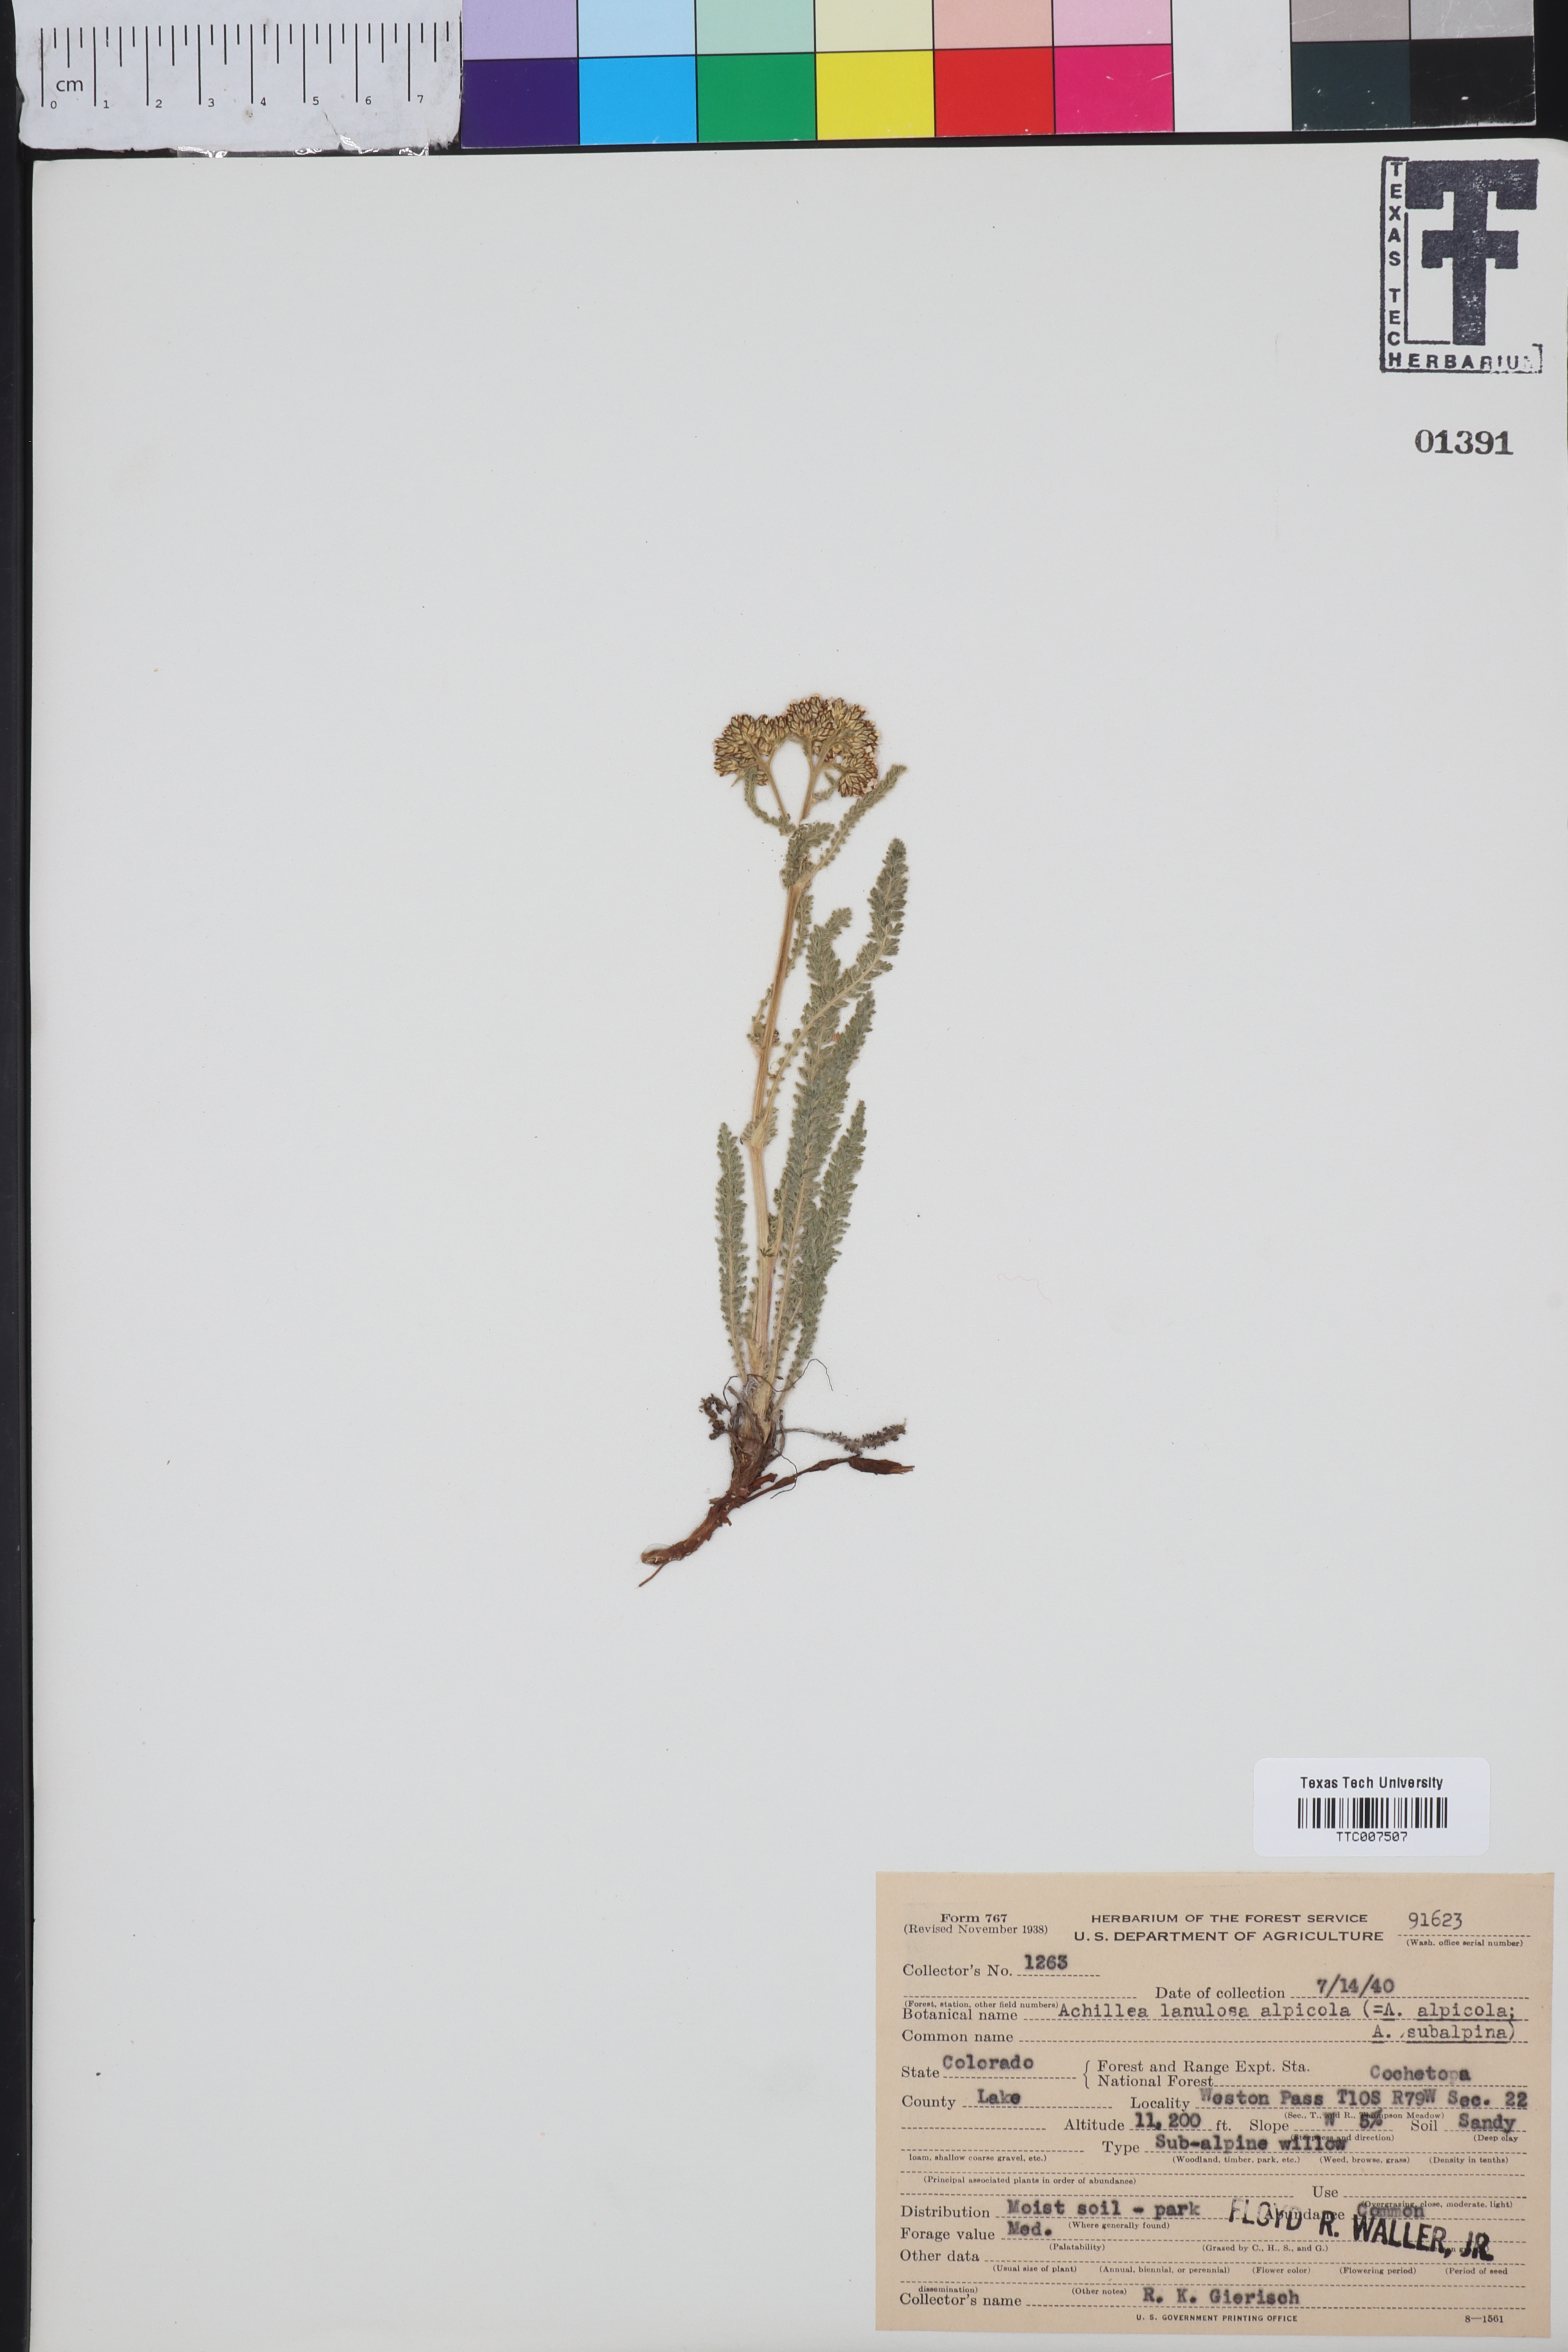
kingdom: Plantae
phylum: Tracheophyta
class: Magnoliopsida
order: Asterales
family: Asteraceae
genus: Achillea
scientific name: Achillea millefolium
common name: Yarrow
